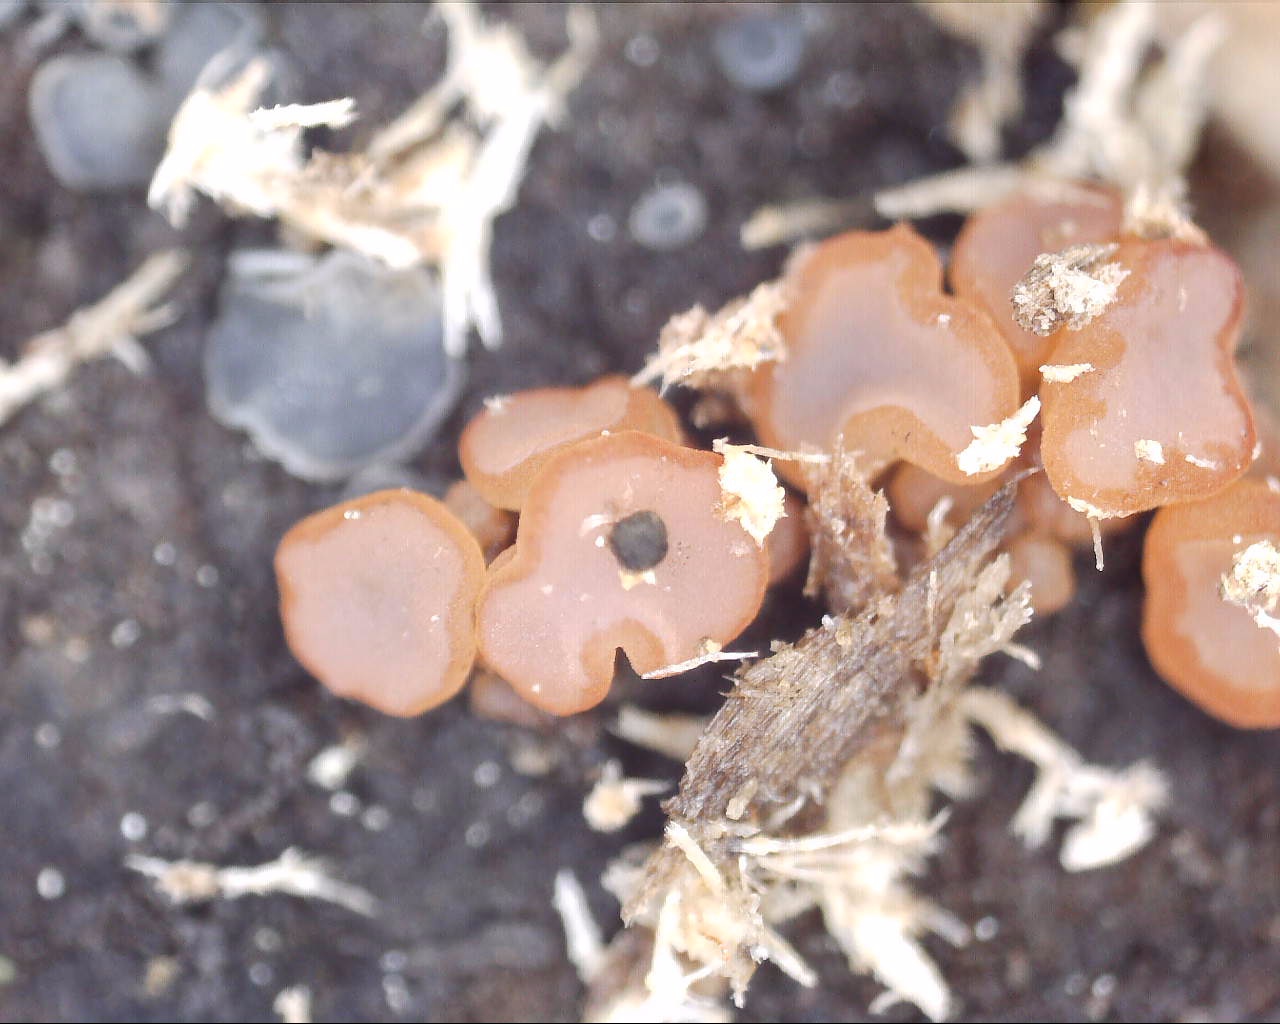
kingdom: Fungi
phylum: Ascomycota
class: Leotiomycetes
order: Helotiales
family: Gelatinodiscaceae
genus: Ascocoryne
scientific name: Ascocoryne
